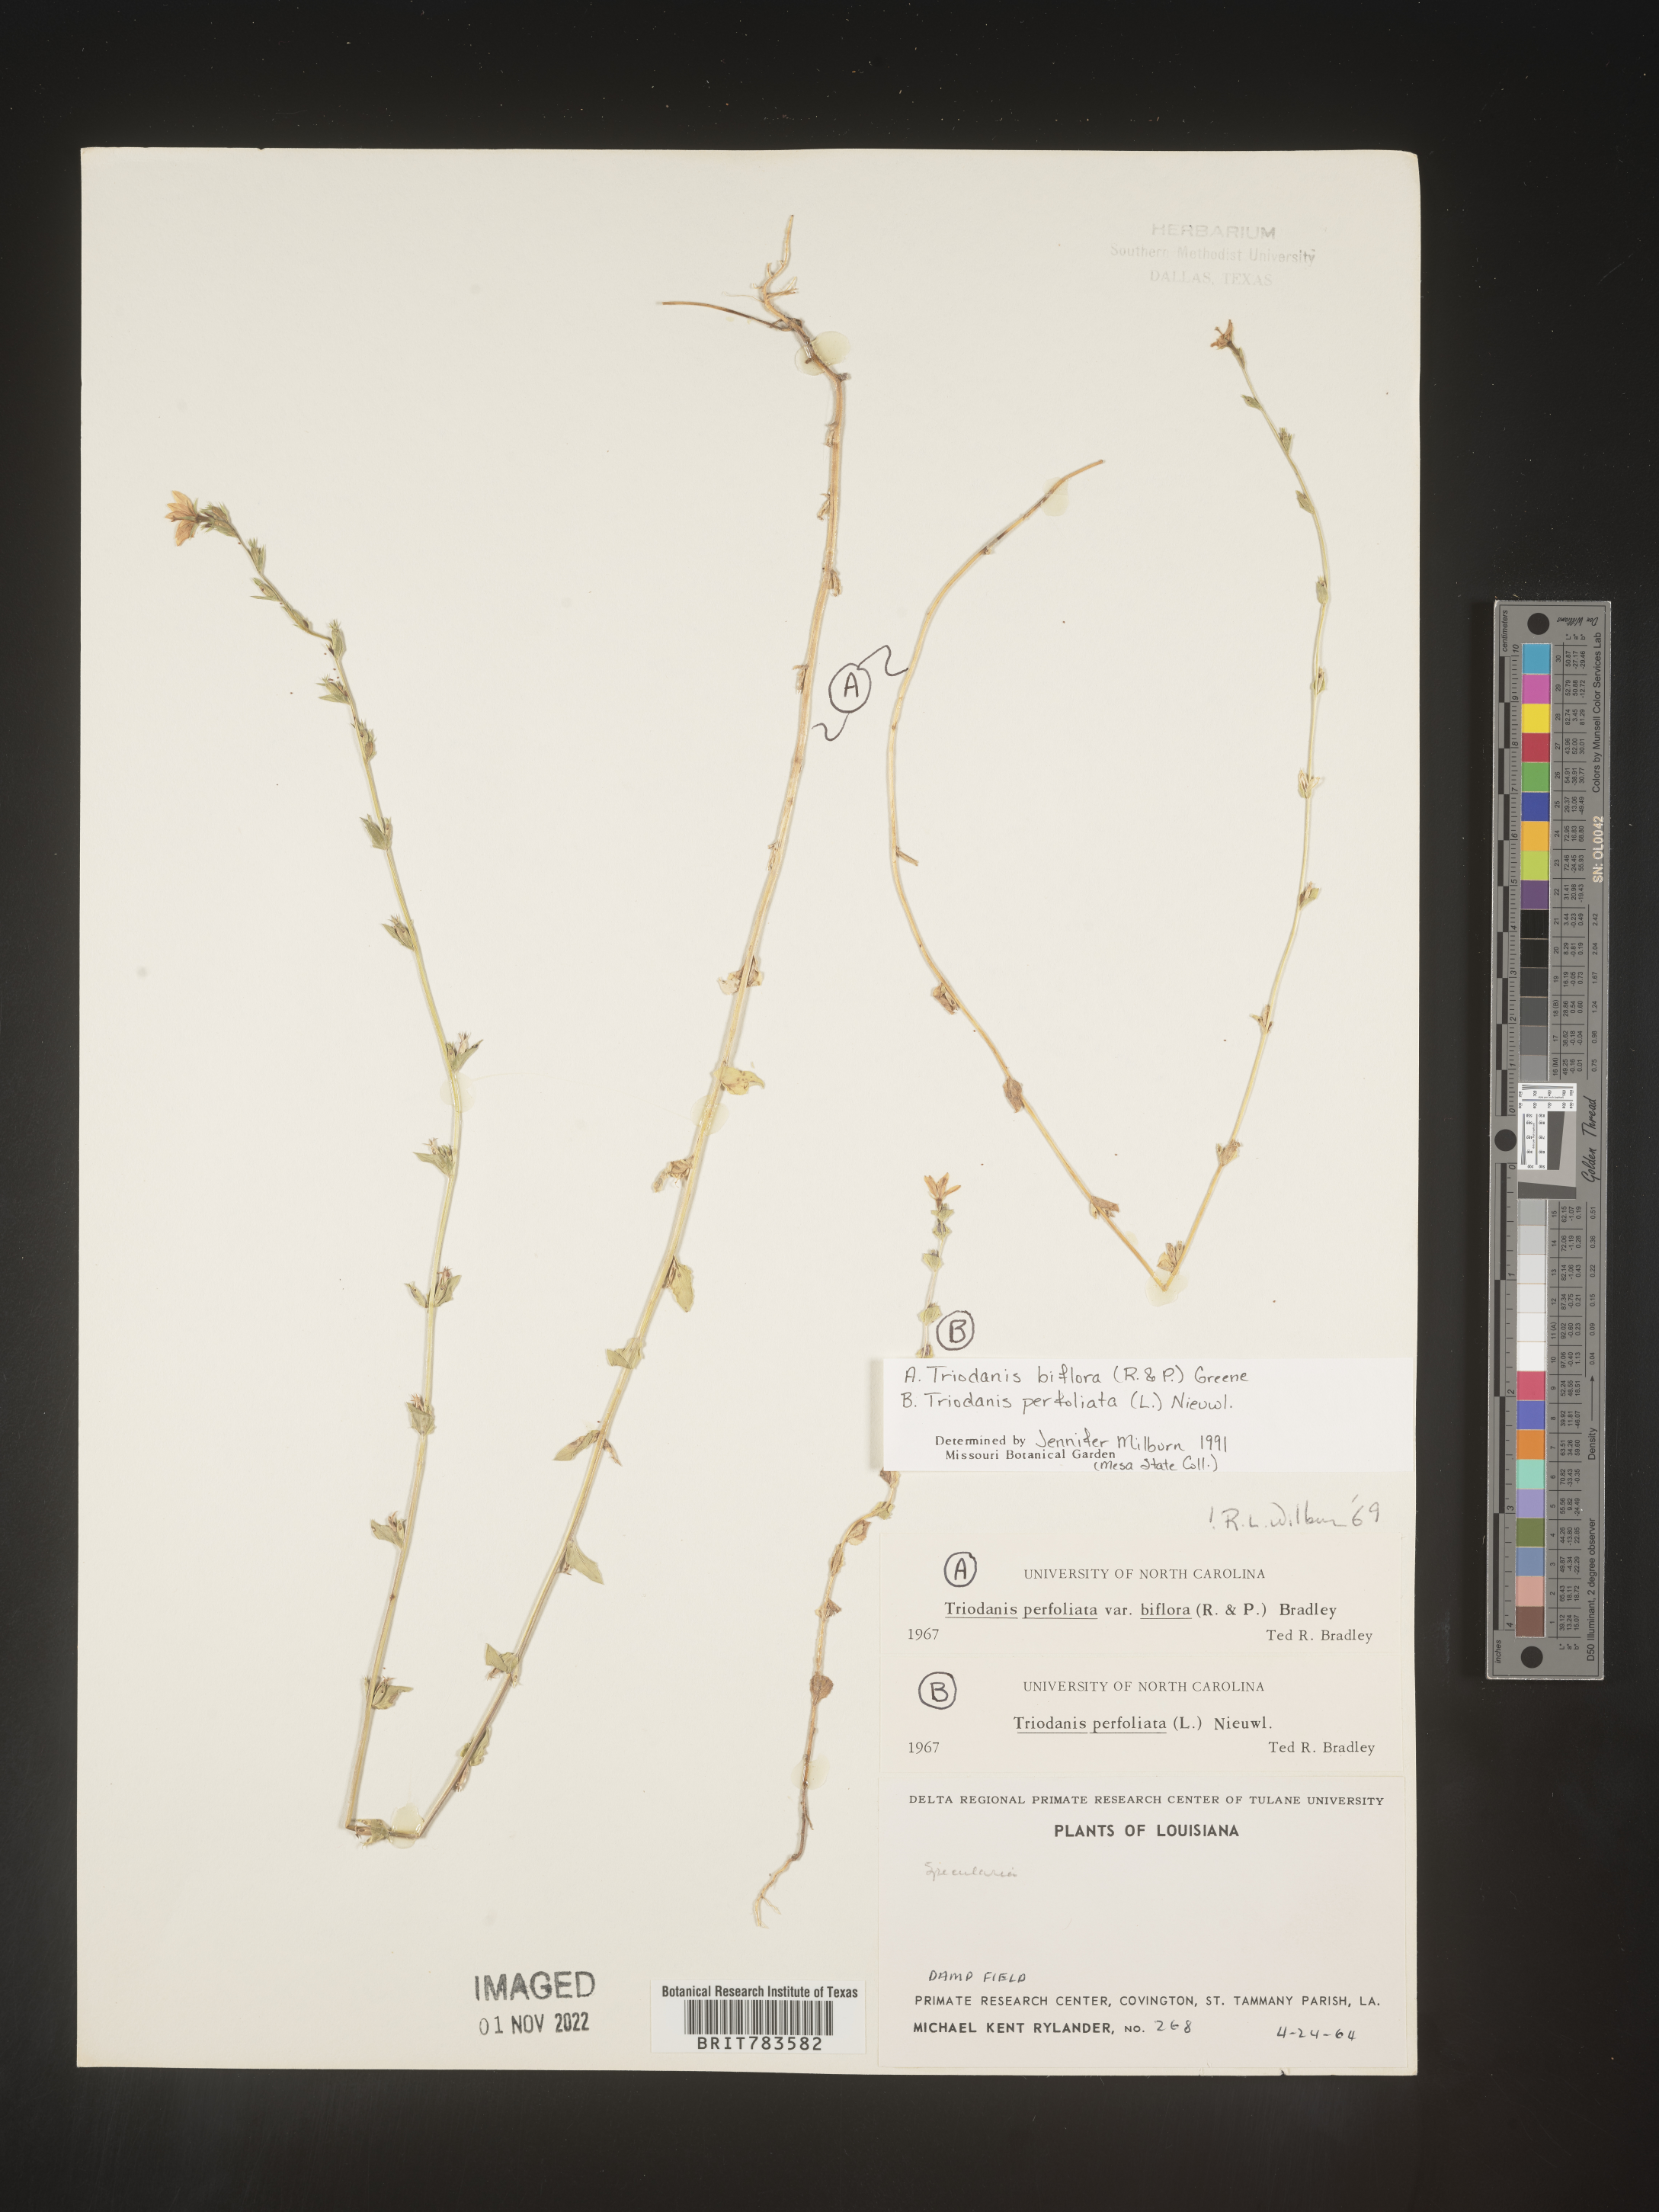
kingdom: Plantae
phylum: Tracheophyta
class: Magnoliopsida
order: Asterales
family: Campanulaceae
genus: Triodanis
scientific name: Triodanis perfoliata
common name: Clasping venus' looking-glass
